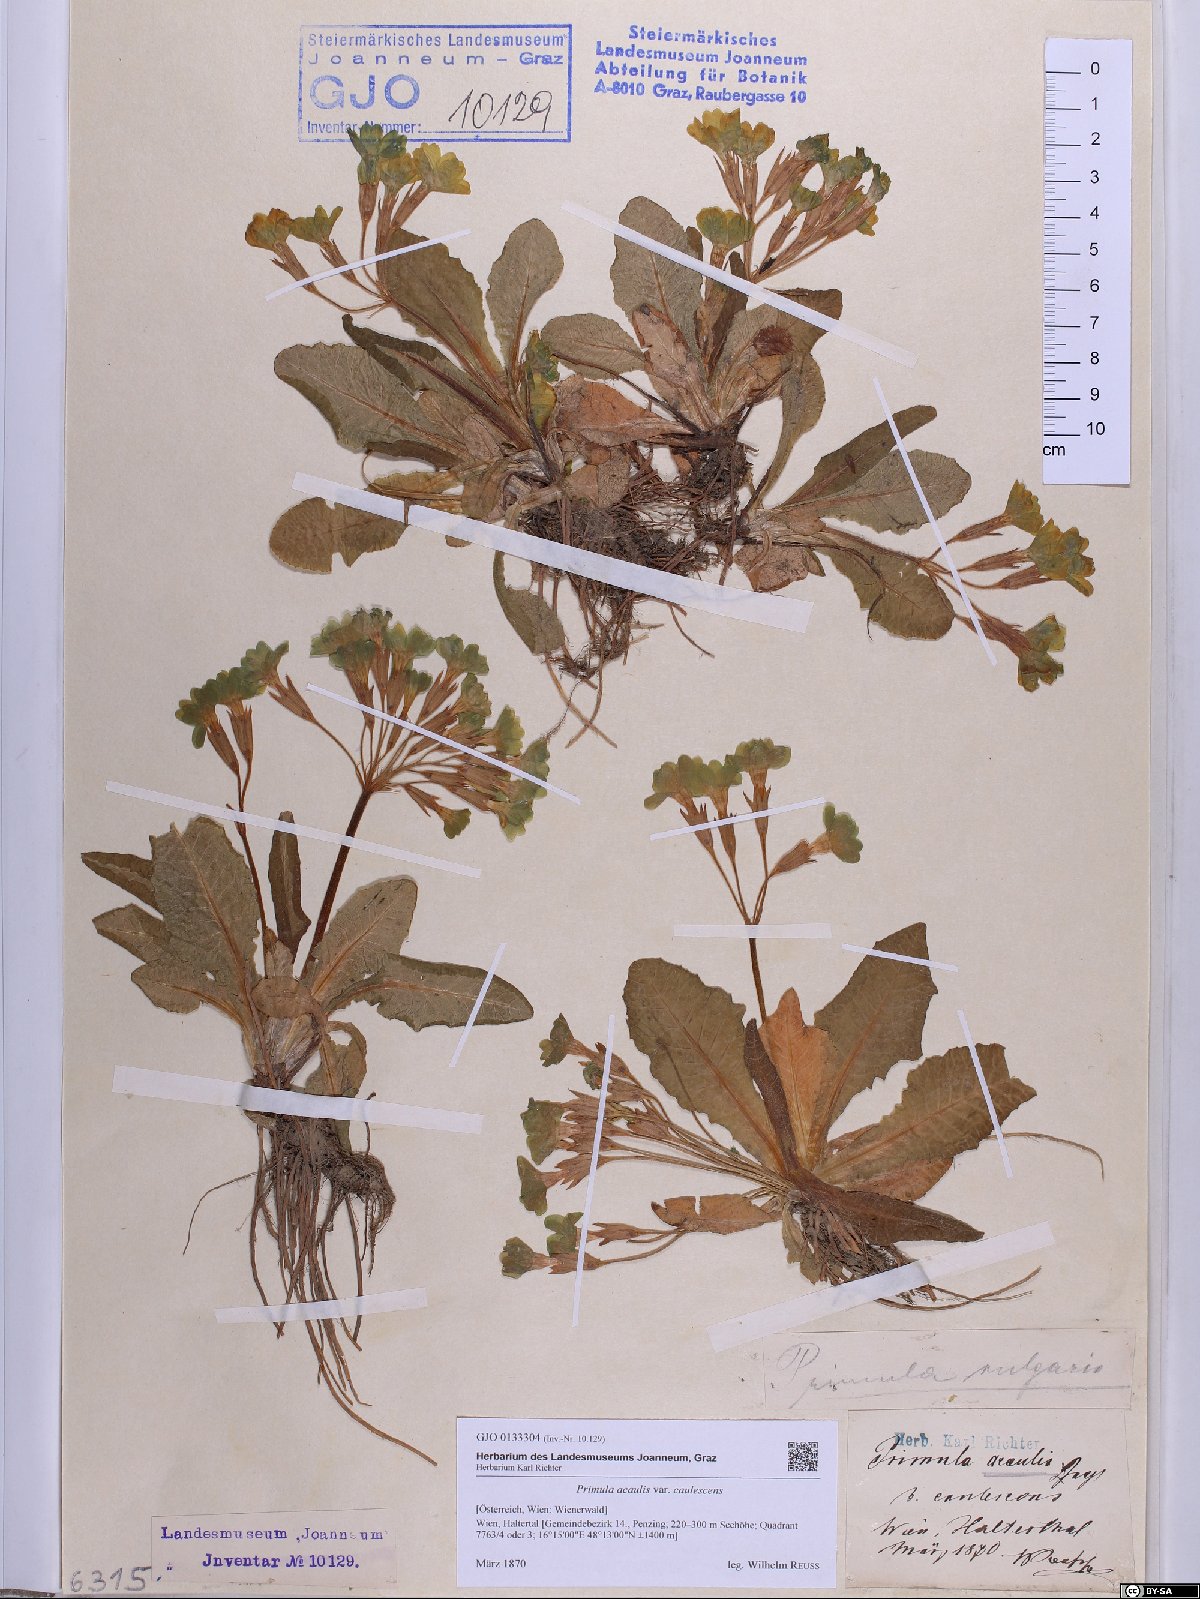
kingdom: Plantae
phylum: Tracheophyta
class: Magnoliopsida
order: Ericales
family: Primulaceae
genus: Primula
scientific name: Primula vulgaris
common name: Primrose
